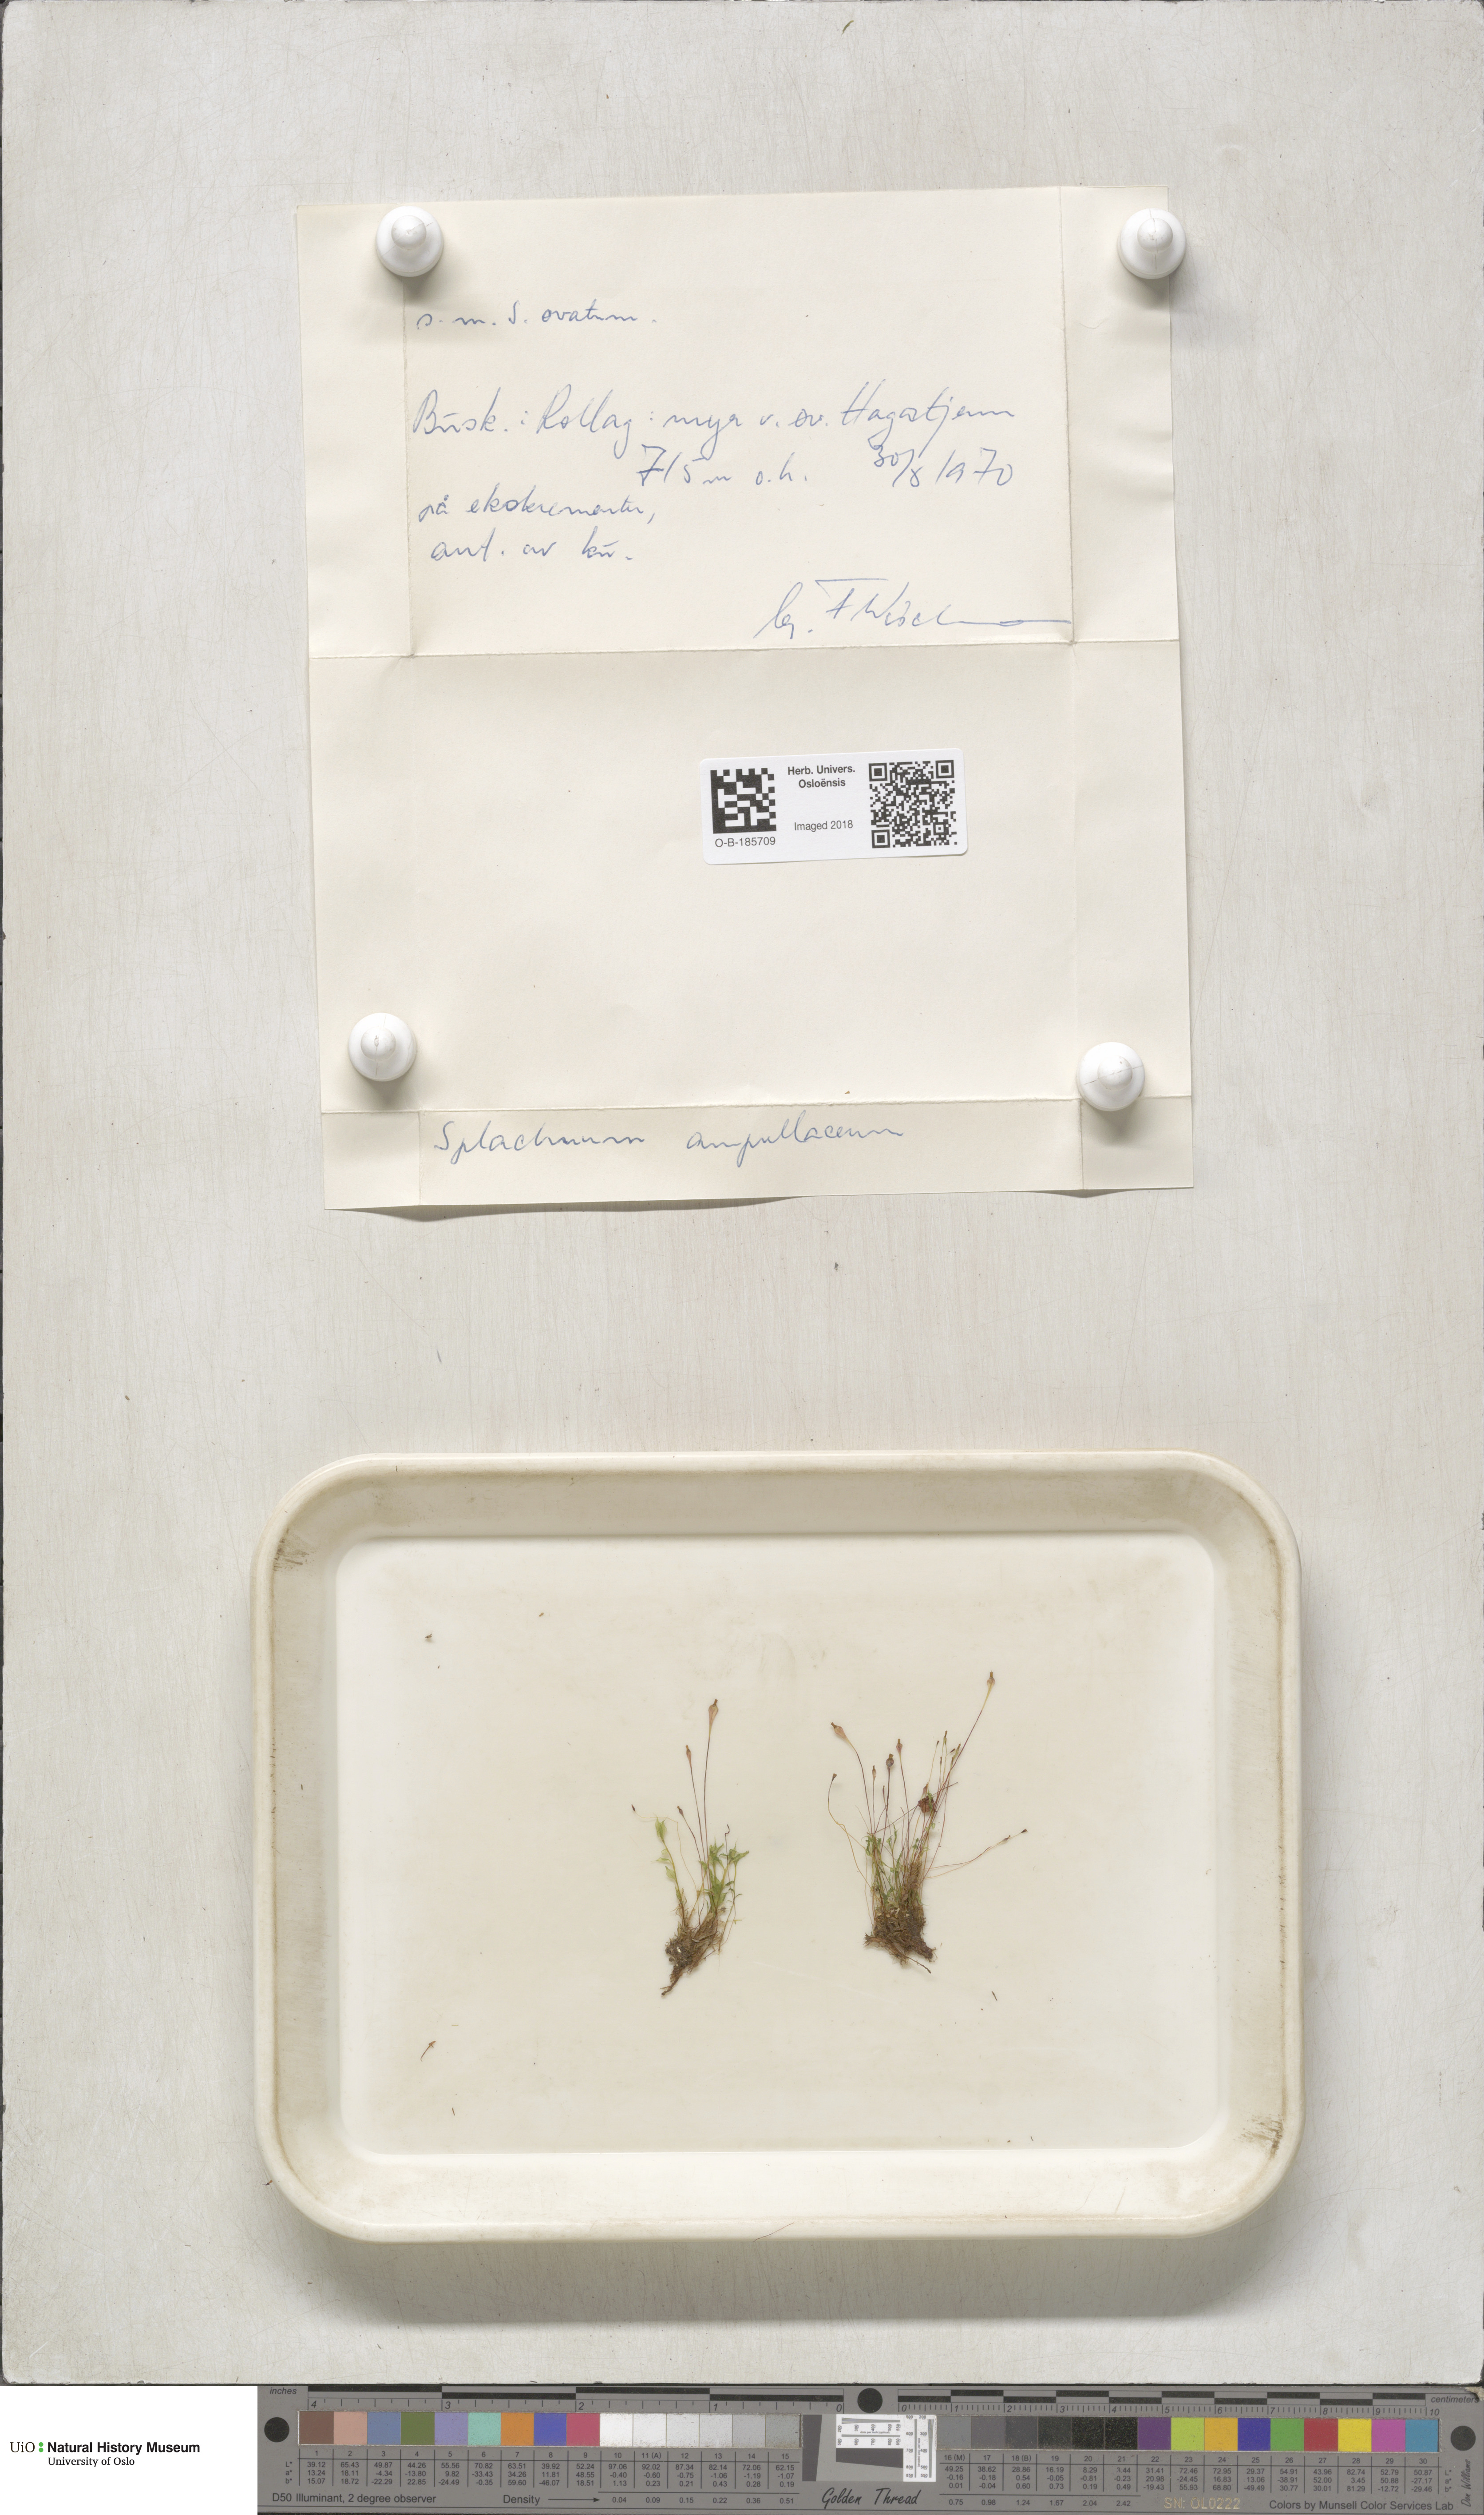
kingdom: Plantae
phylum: Bryophyta
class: Bryopsida
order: Splachnales
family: Splachnaceae
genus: Splachnum
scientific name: Splachnum ampullaceum
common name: Cruet dung moss
